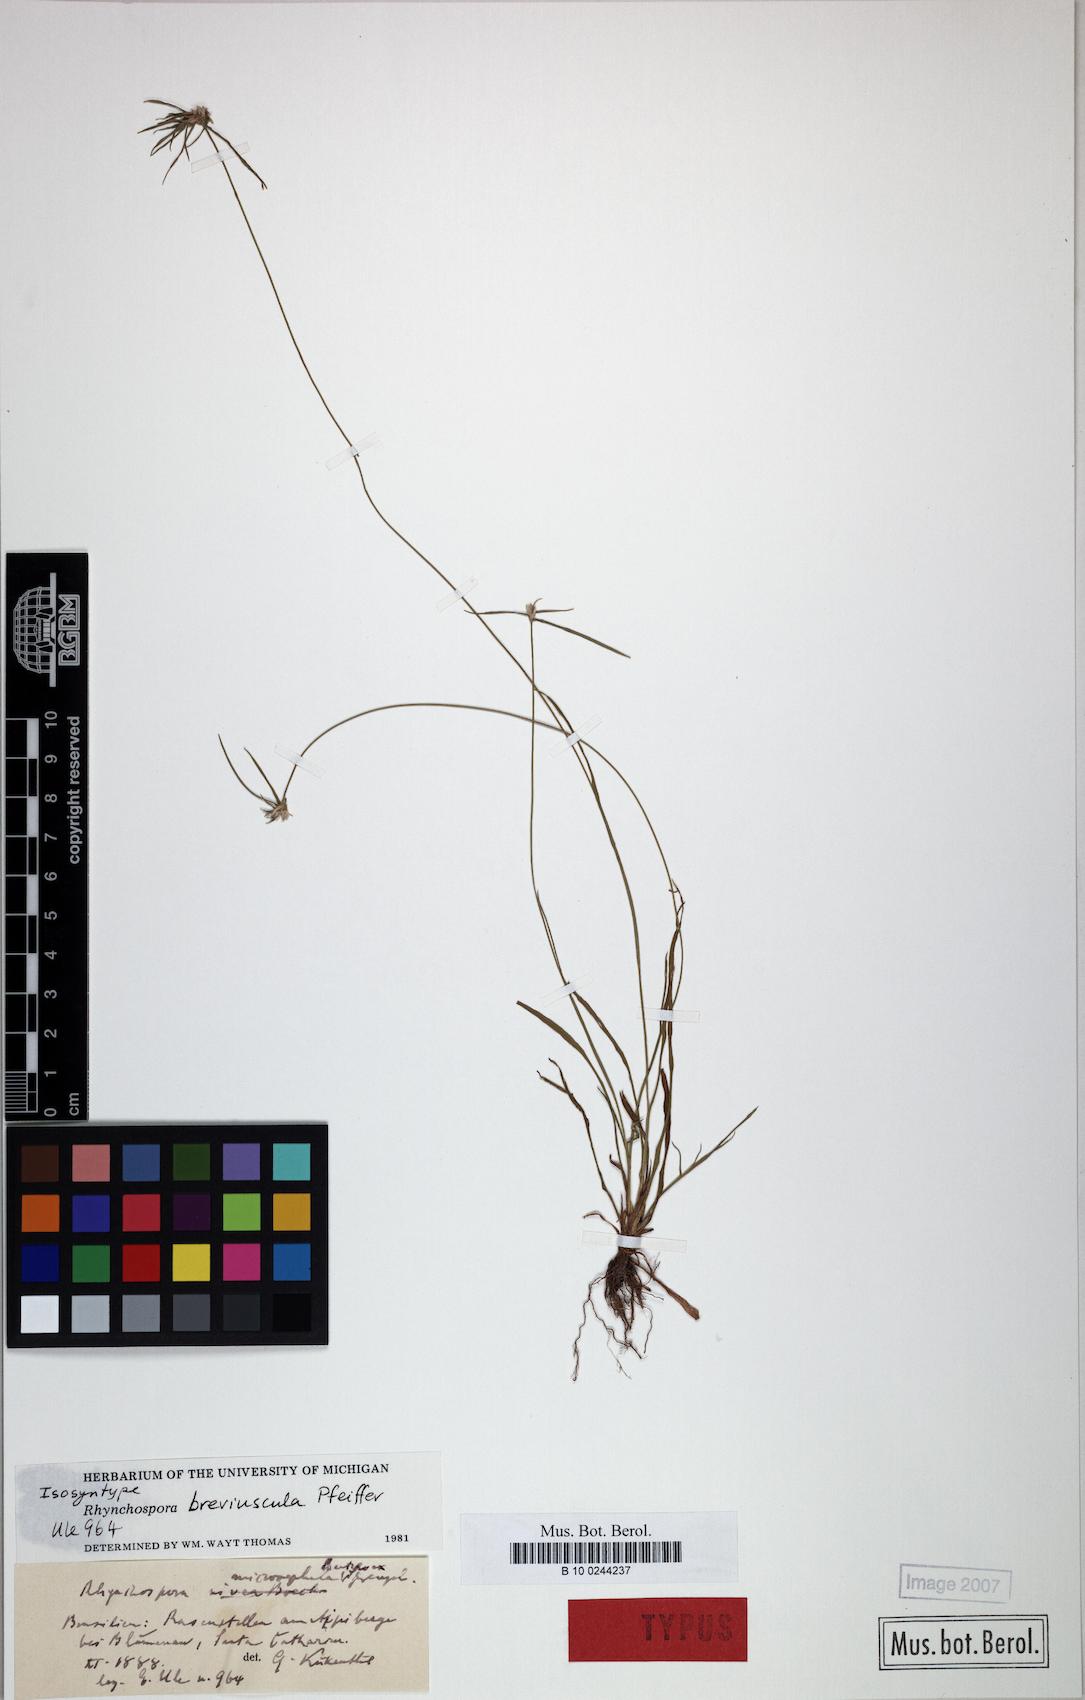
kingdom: Plantae
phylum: Tracheophyta
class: Liliopsida
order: Poales
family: Cyperaceae
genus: Rhynchospora
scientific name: Rhynchospora breviuscula
